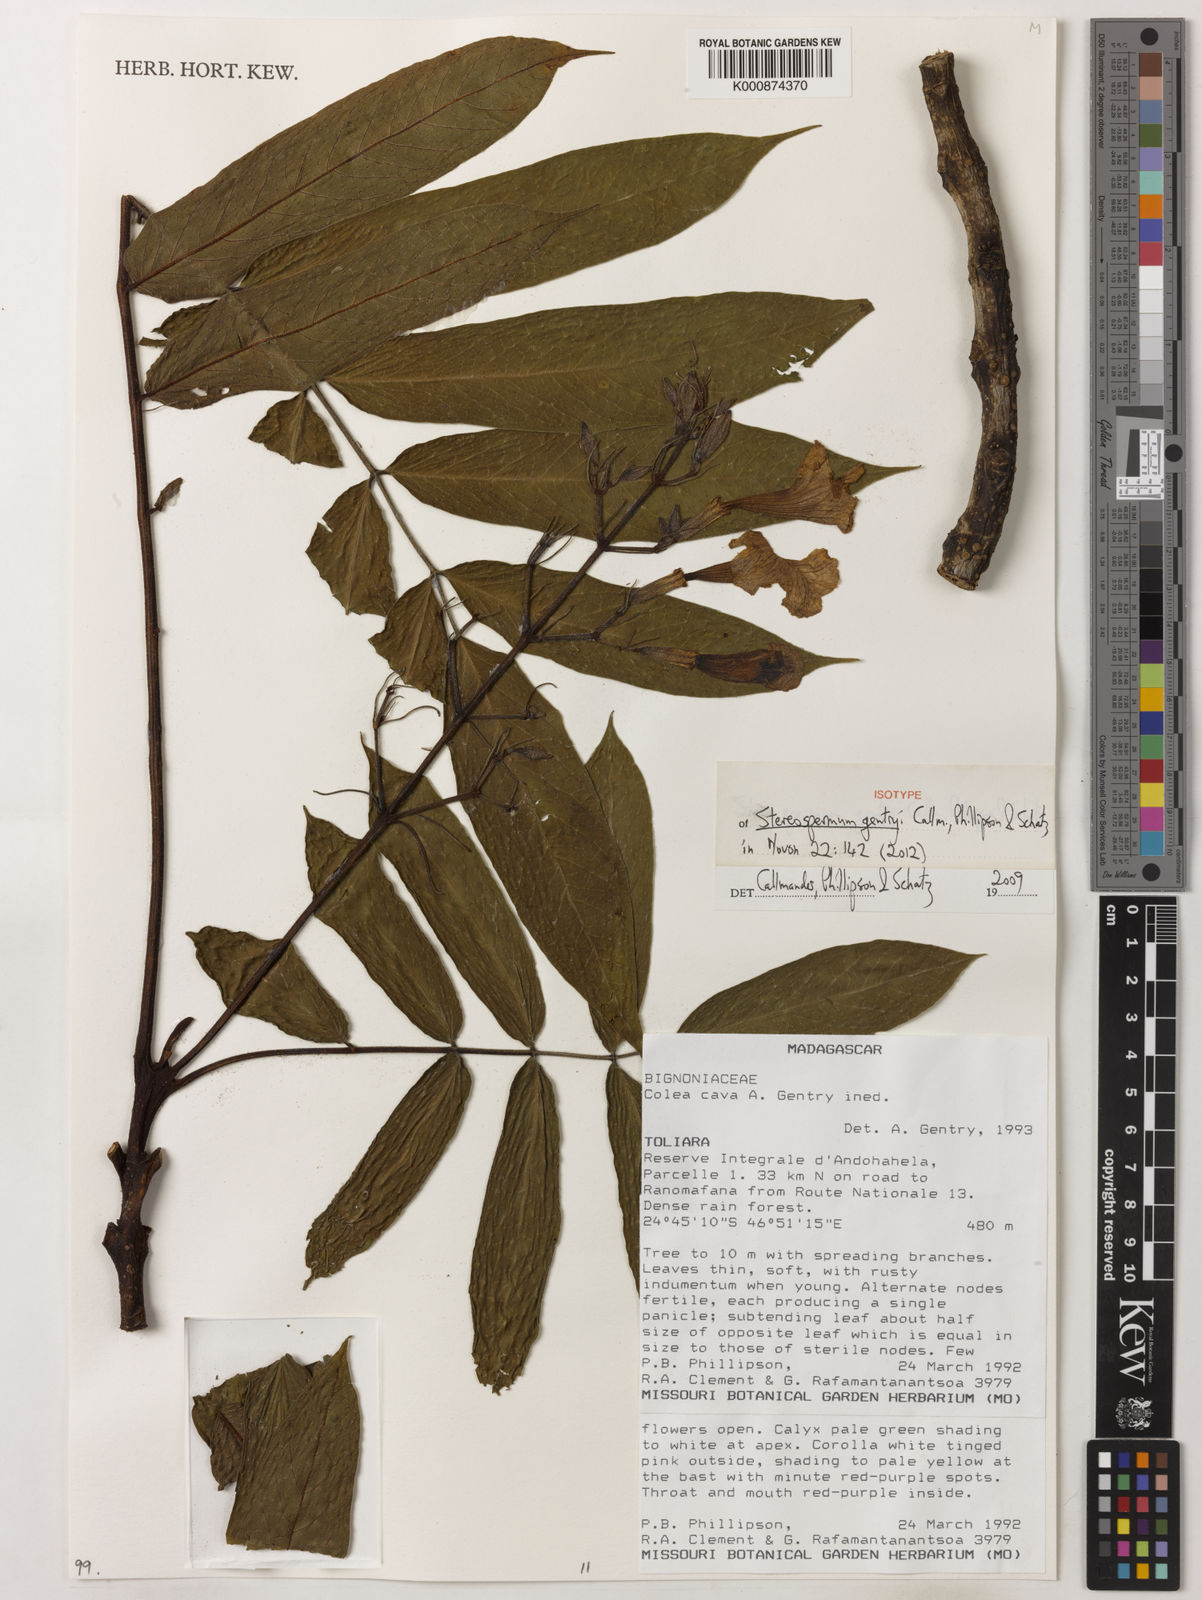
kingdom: Plantae
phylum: Tracheophyta
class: Magnoliopsida
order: Lamiales
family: Bignoniaceae
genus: Stereospermum
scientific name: Stereospermum gentryi
